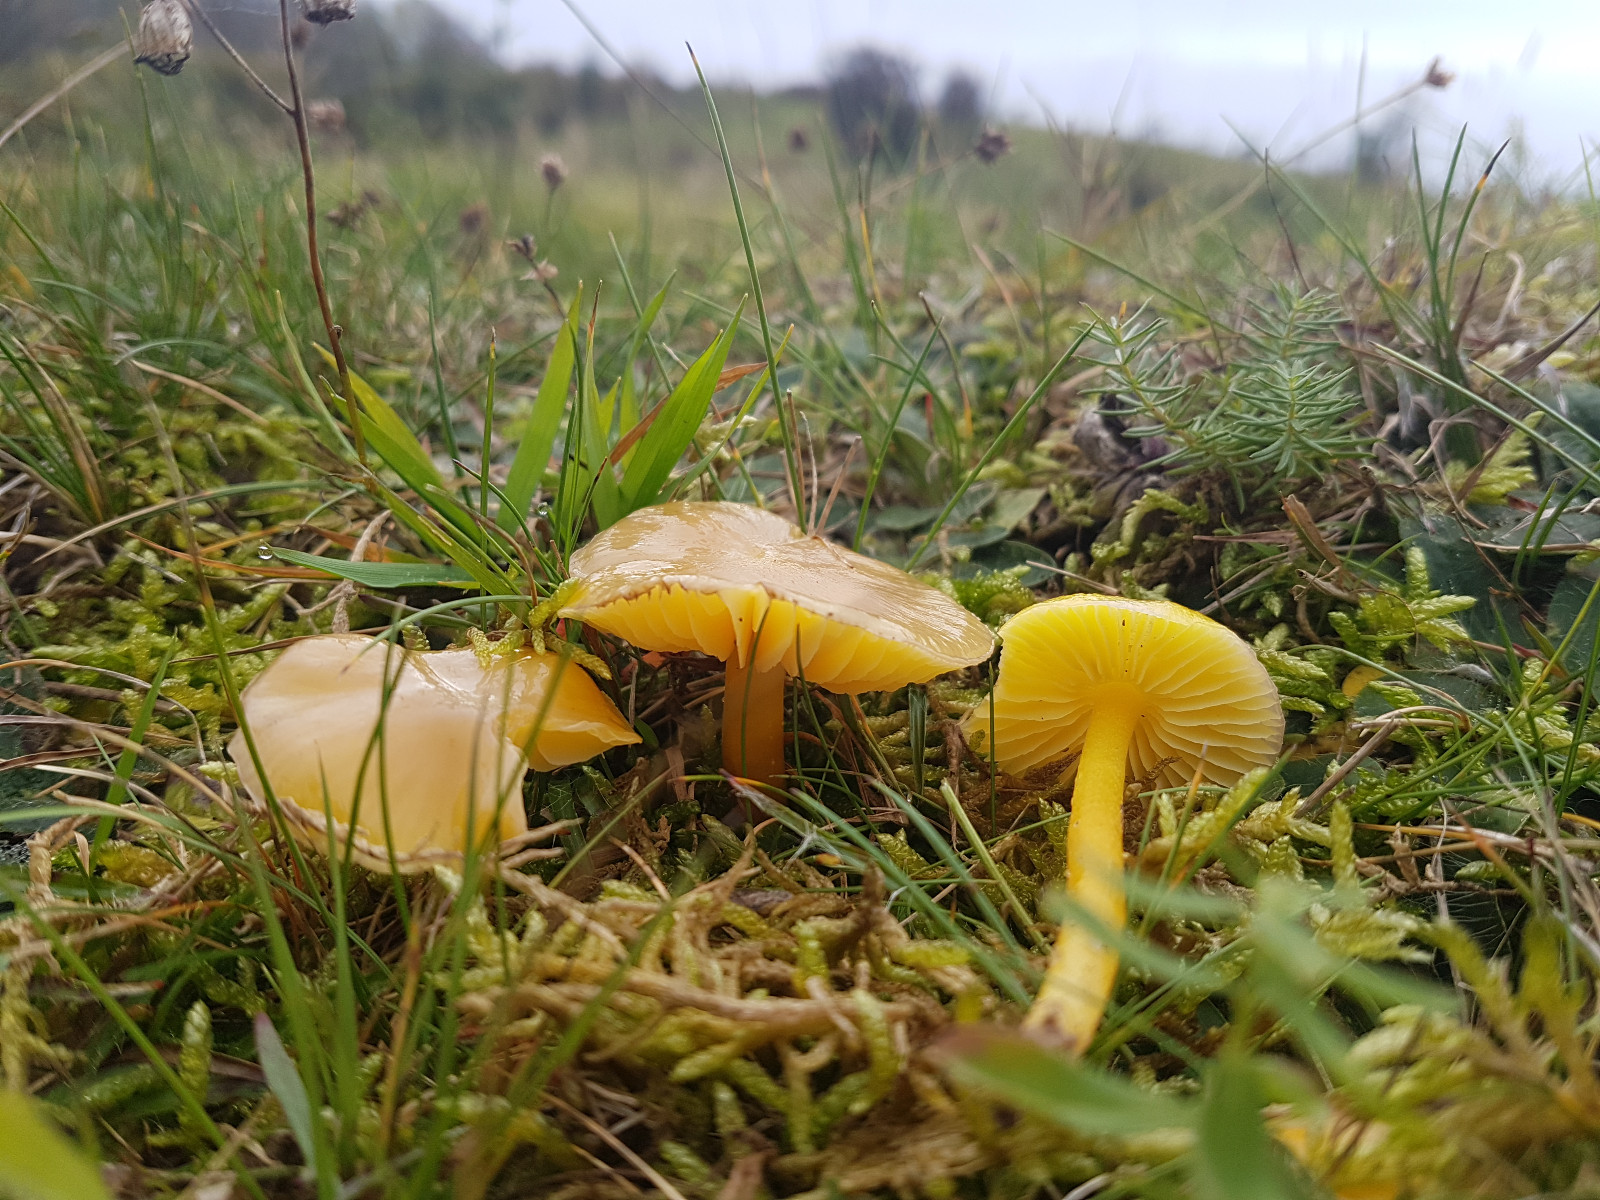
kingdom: Fungi
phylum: Basidiomycota
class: Agaricomycetes
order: Agaricales
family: Hygrophoraceae
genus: Hygrocybe
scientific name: Hygrocybe chlorophana
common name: gul vokshat
